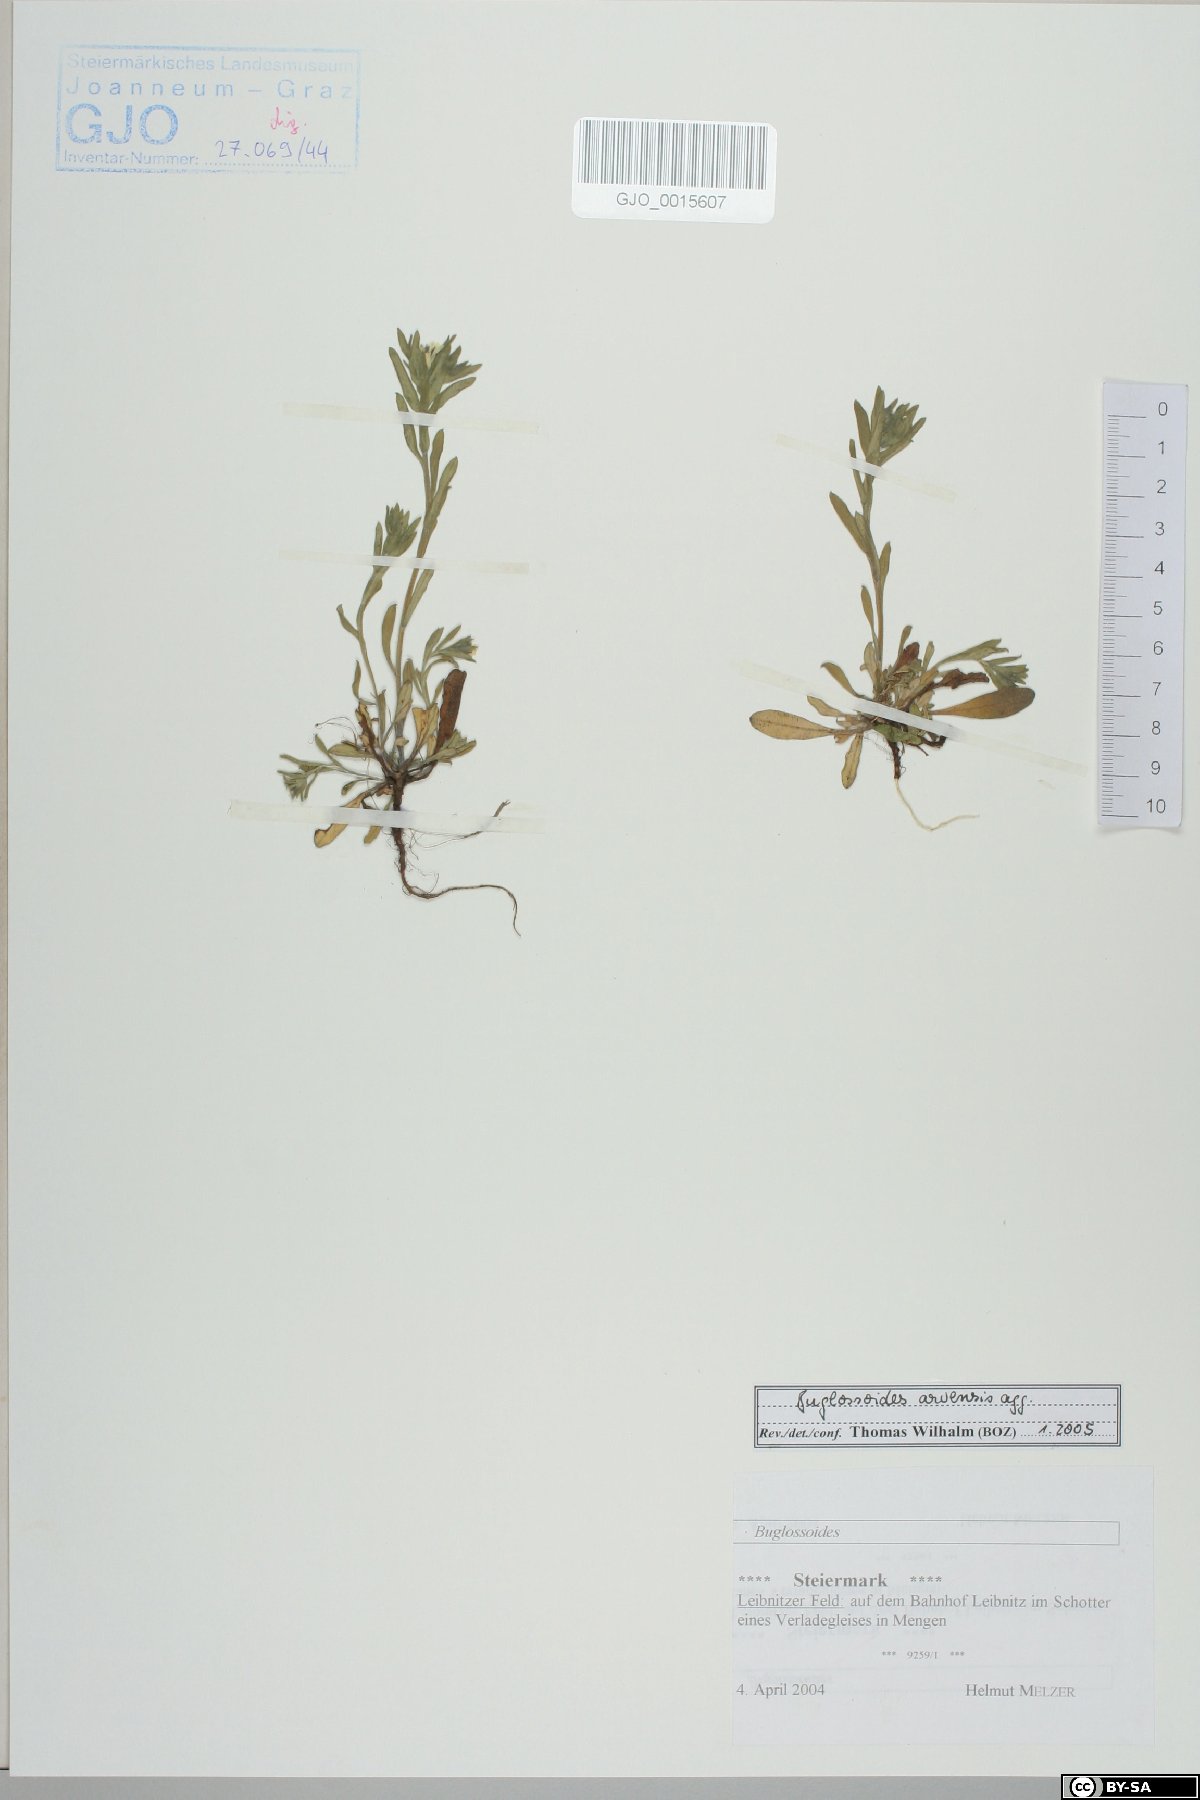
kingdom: Plantae
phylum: Tracheophyta
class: Magnoliopsida
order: Boraginales
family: Boraginaceae
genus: Buglossoides
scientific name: Buglossoides arvensis
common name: Corn gromwell
